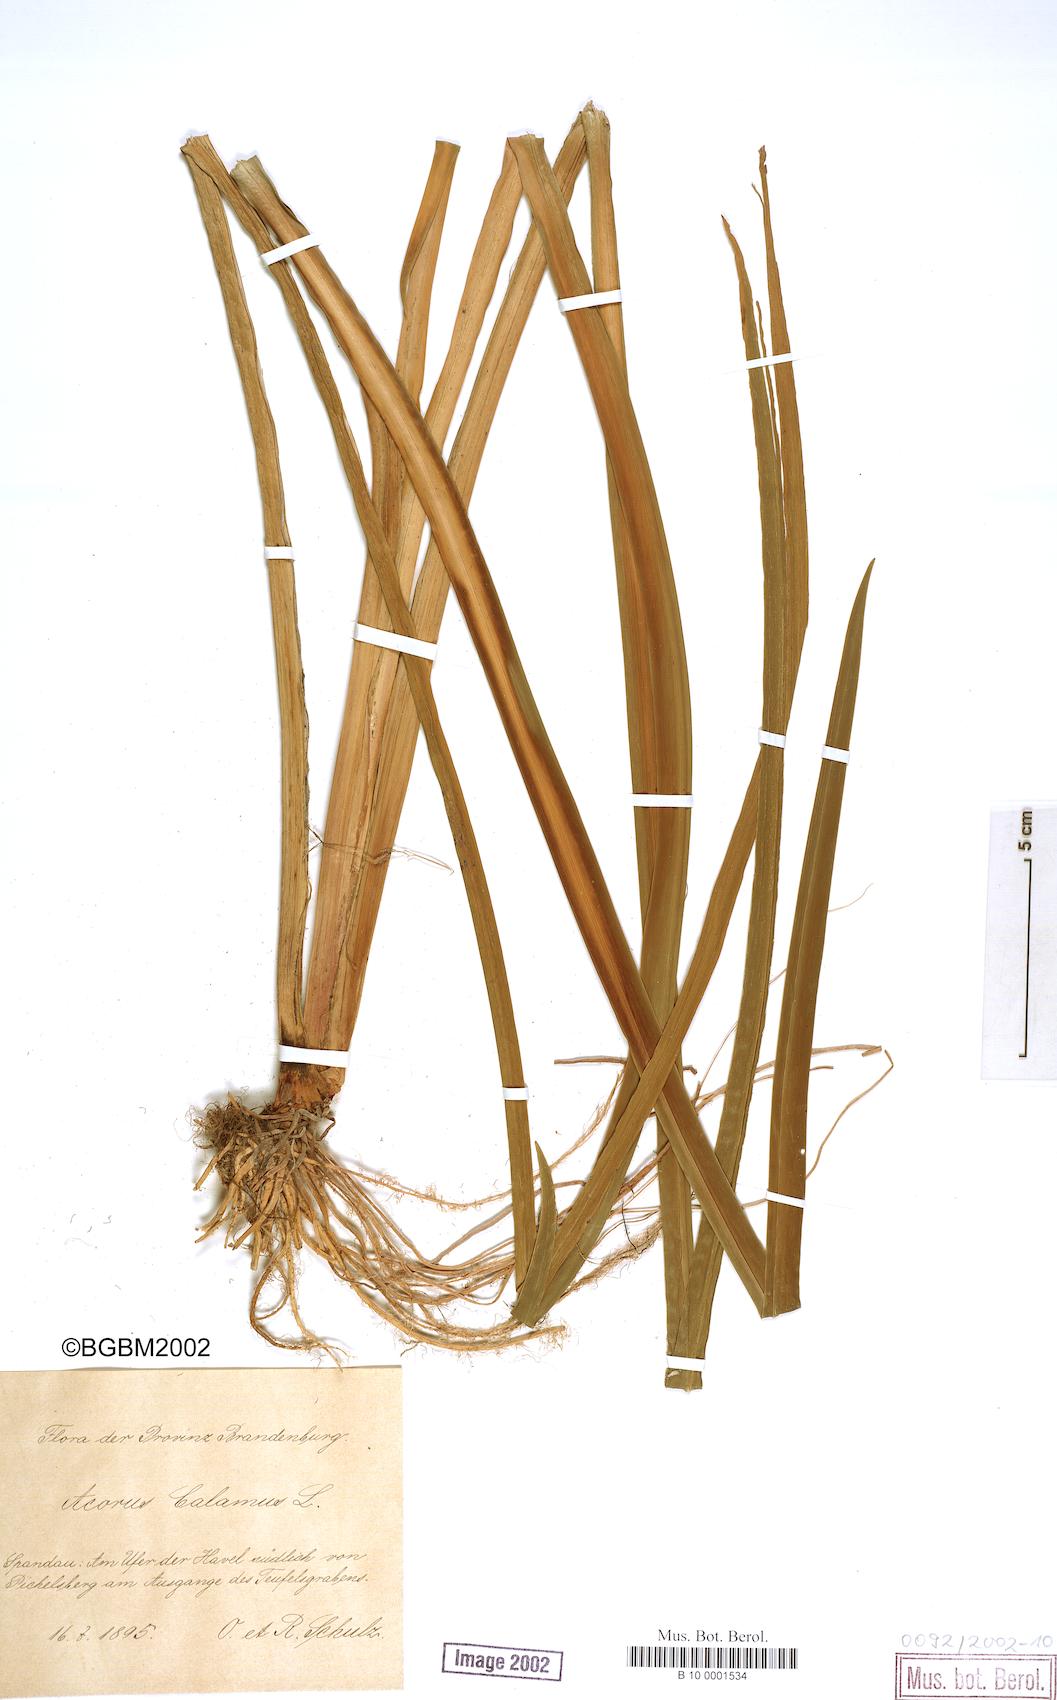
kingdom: Plantae
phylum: Tracheophyta
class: Liliopsida
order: Acorales
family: Acoraceae
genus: Acorus
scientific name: Acorus calamus
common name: Sweet-flag
